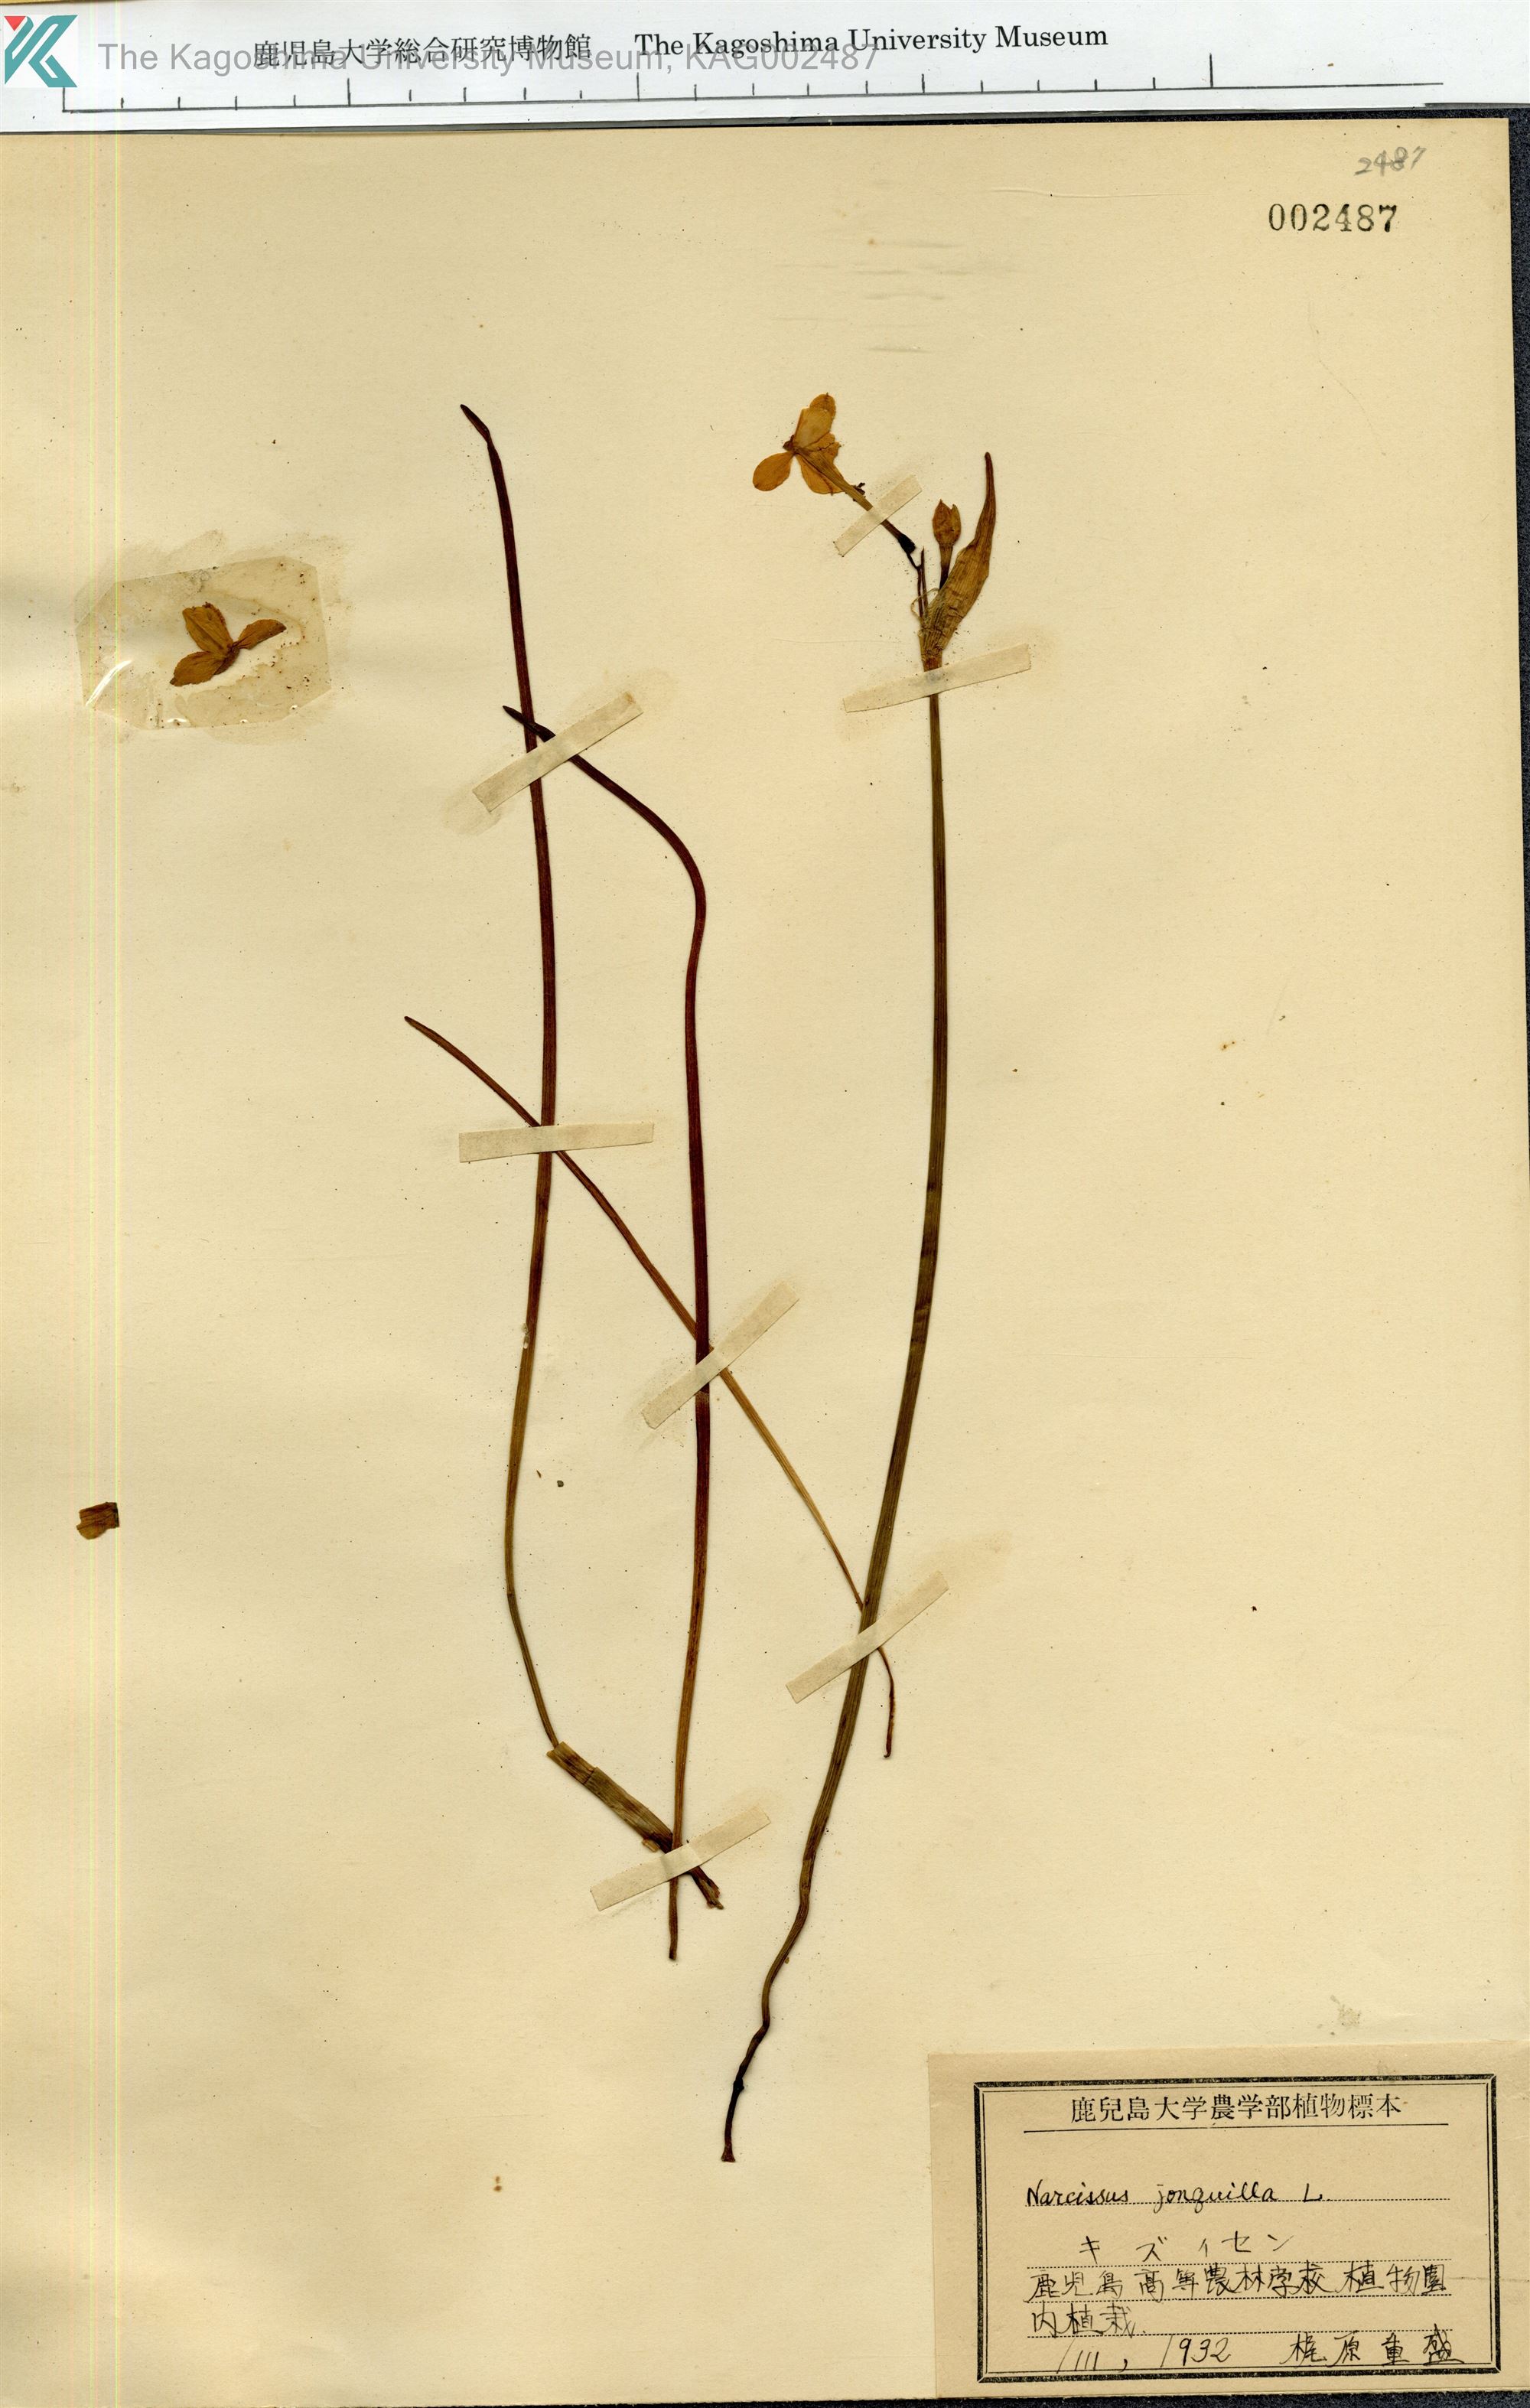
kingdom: Plantae
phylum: Tracheophyta
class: Liliopsida
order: Asparagales
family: Amaryllidaceae
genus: Narcissus
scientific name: Narcissus jonquilla
